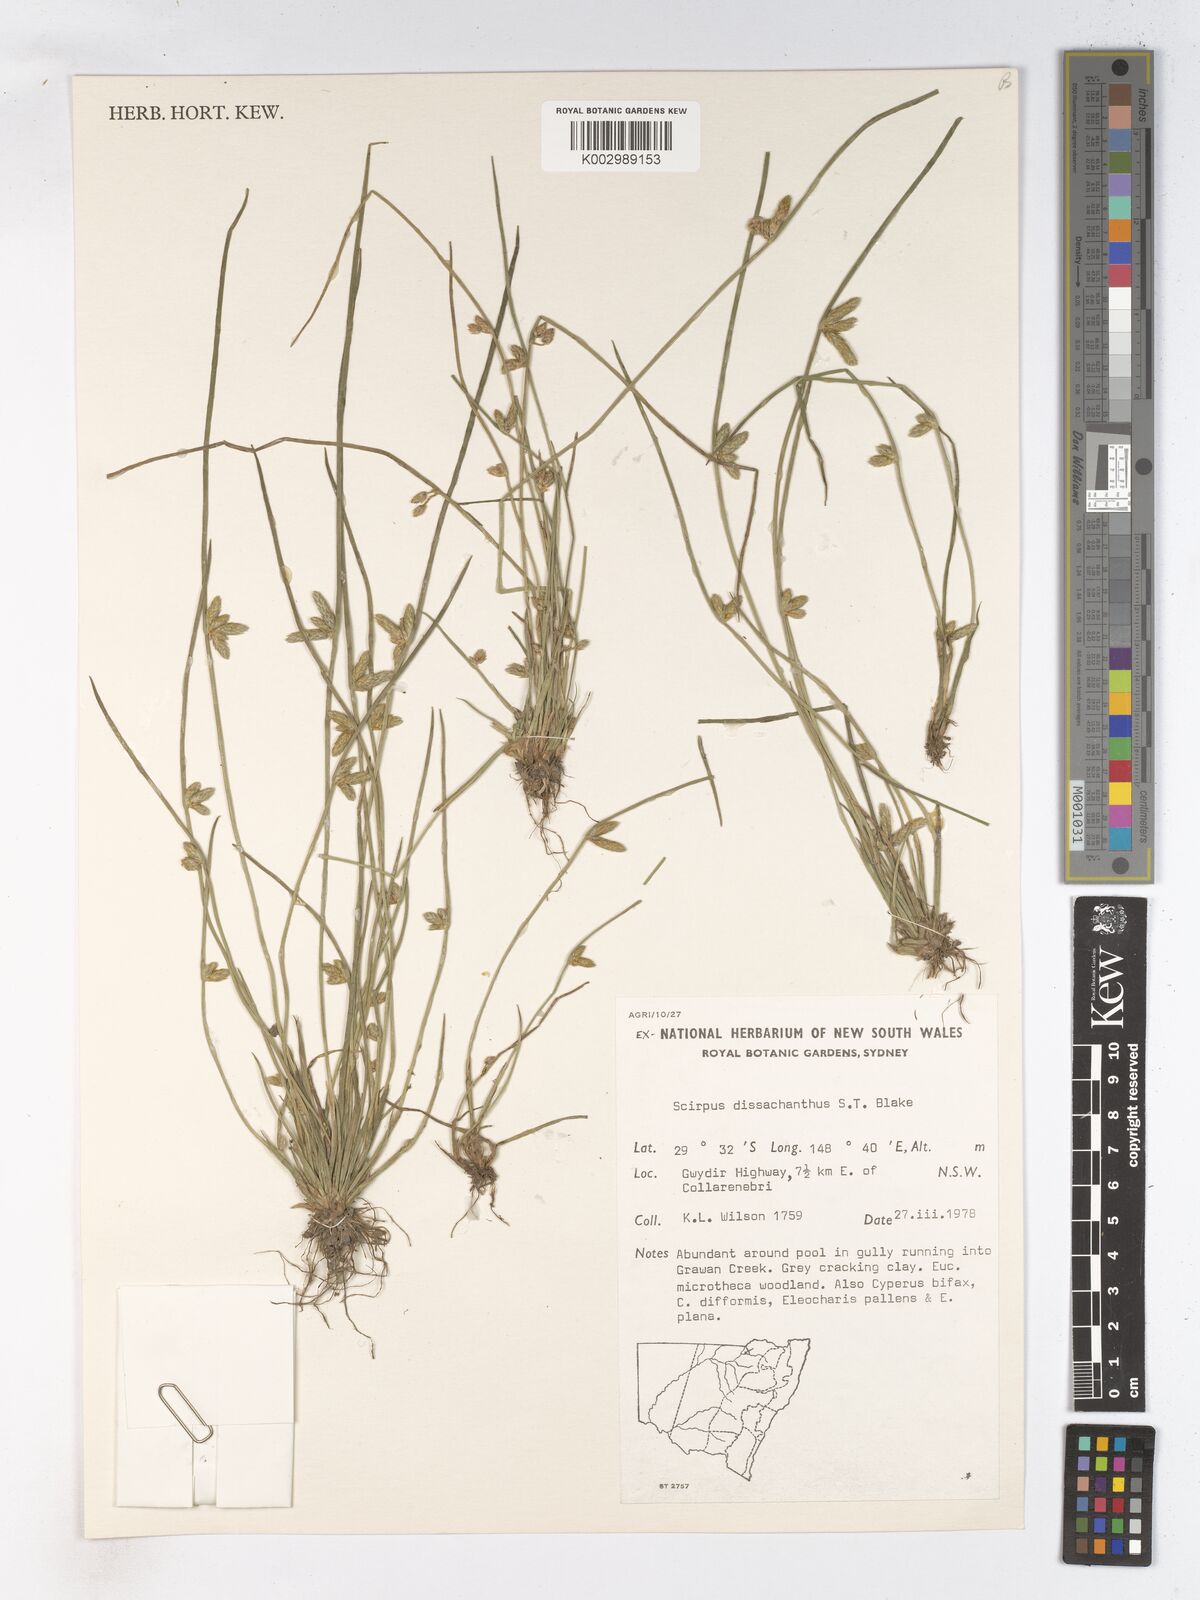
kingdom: Plantae
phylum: Tracheophyta
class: Liliopsida
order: Poales
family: Cyperaceae
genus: Schoenoplectiella
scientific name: Schoenoplectiella dissachantha
